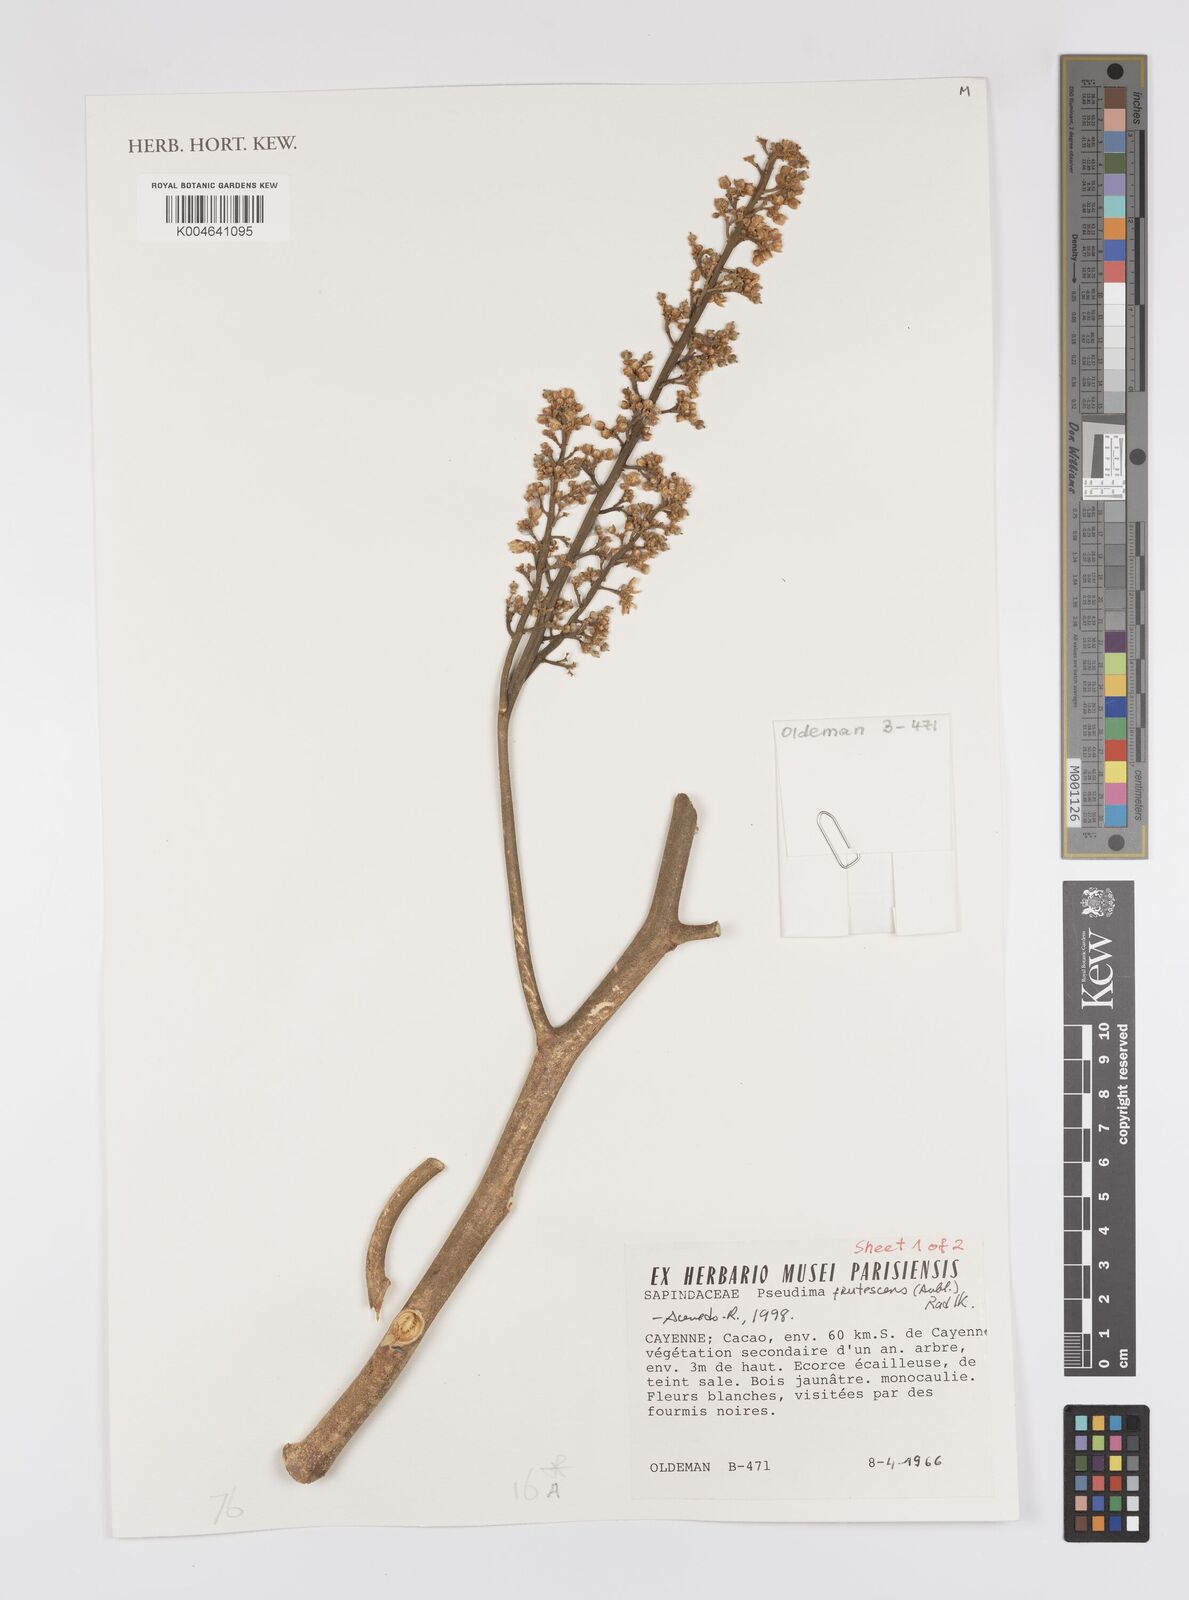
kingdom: Plantae
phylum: Tracheophyta
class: Magnoliopsida
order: Sapindales
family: Sapindaceae
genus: Pseudima
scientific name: Pseudima frutescens
